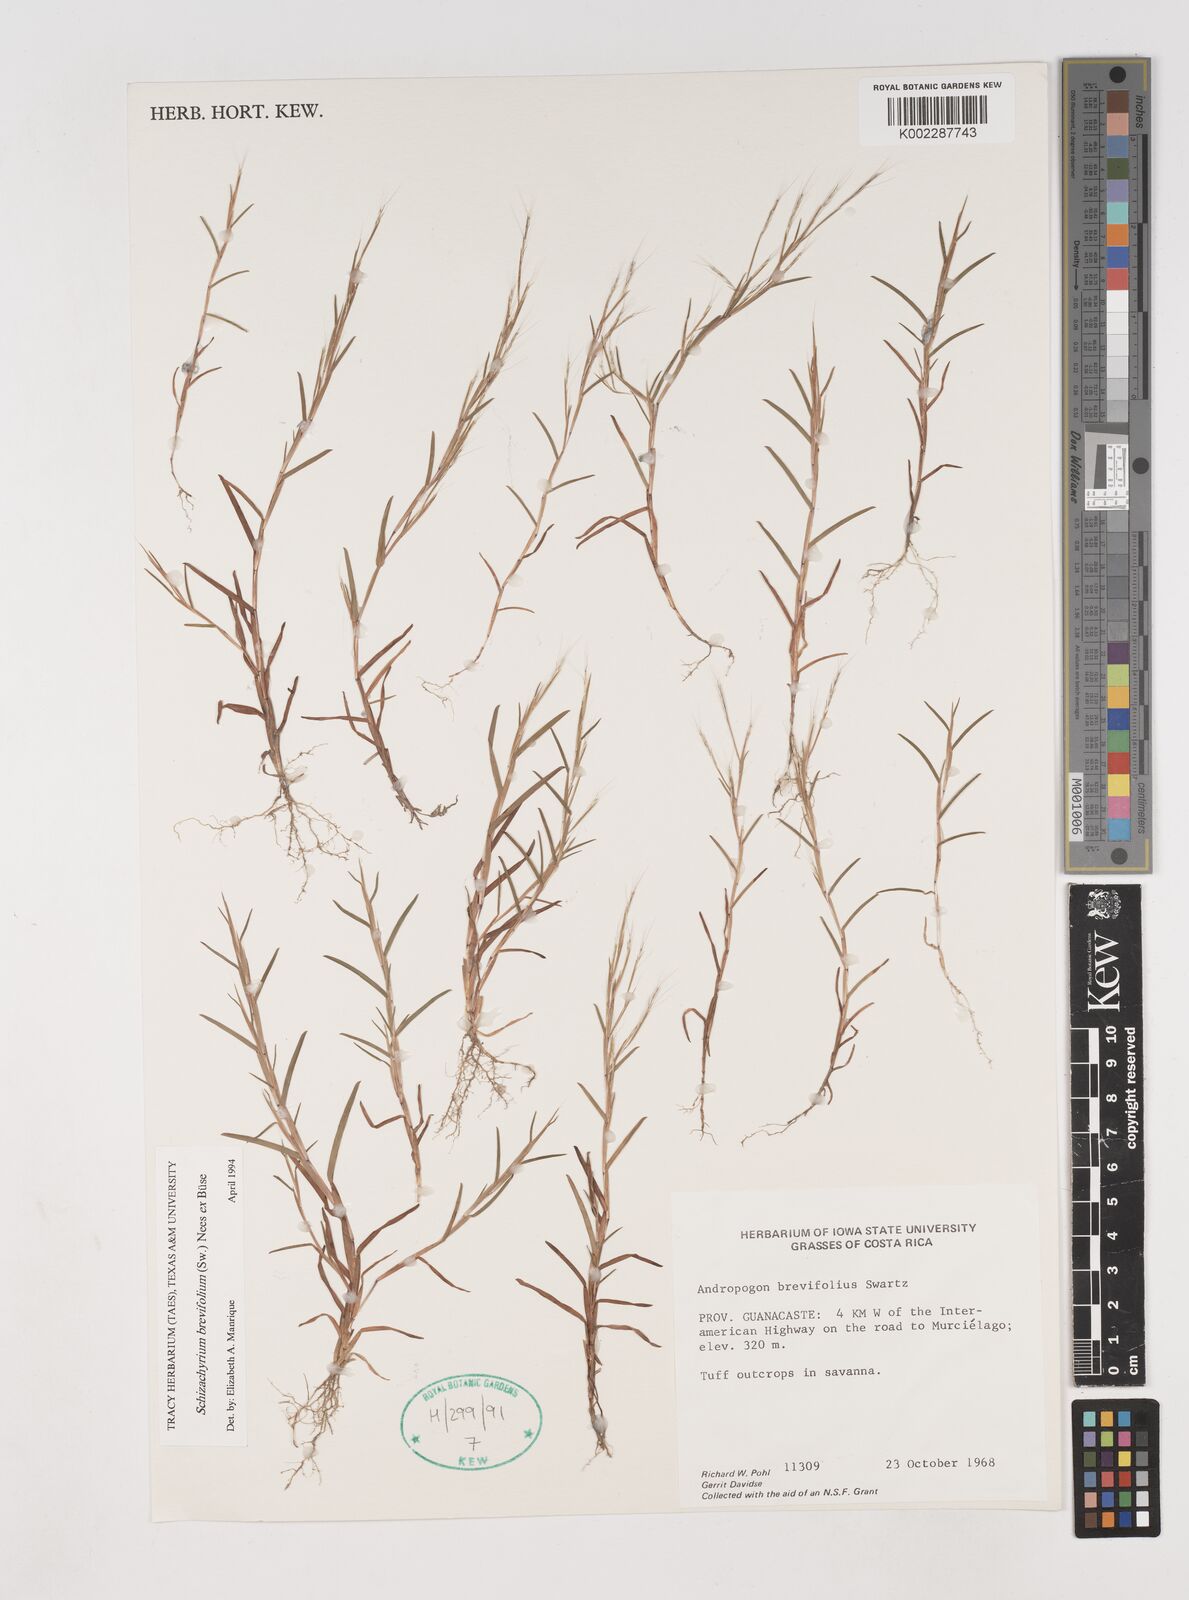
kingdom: Plantae
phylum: Tracheophyta
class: Liliopsida
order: Poales
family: Poaceae
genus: Schizachyrium
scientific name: Schizachyrium brevifolium
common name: Serillo dulce
